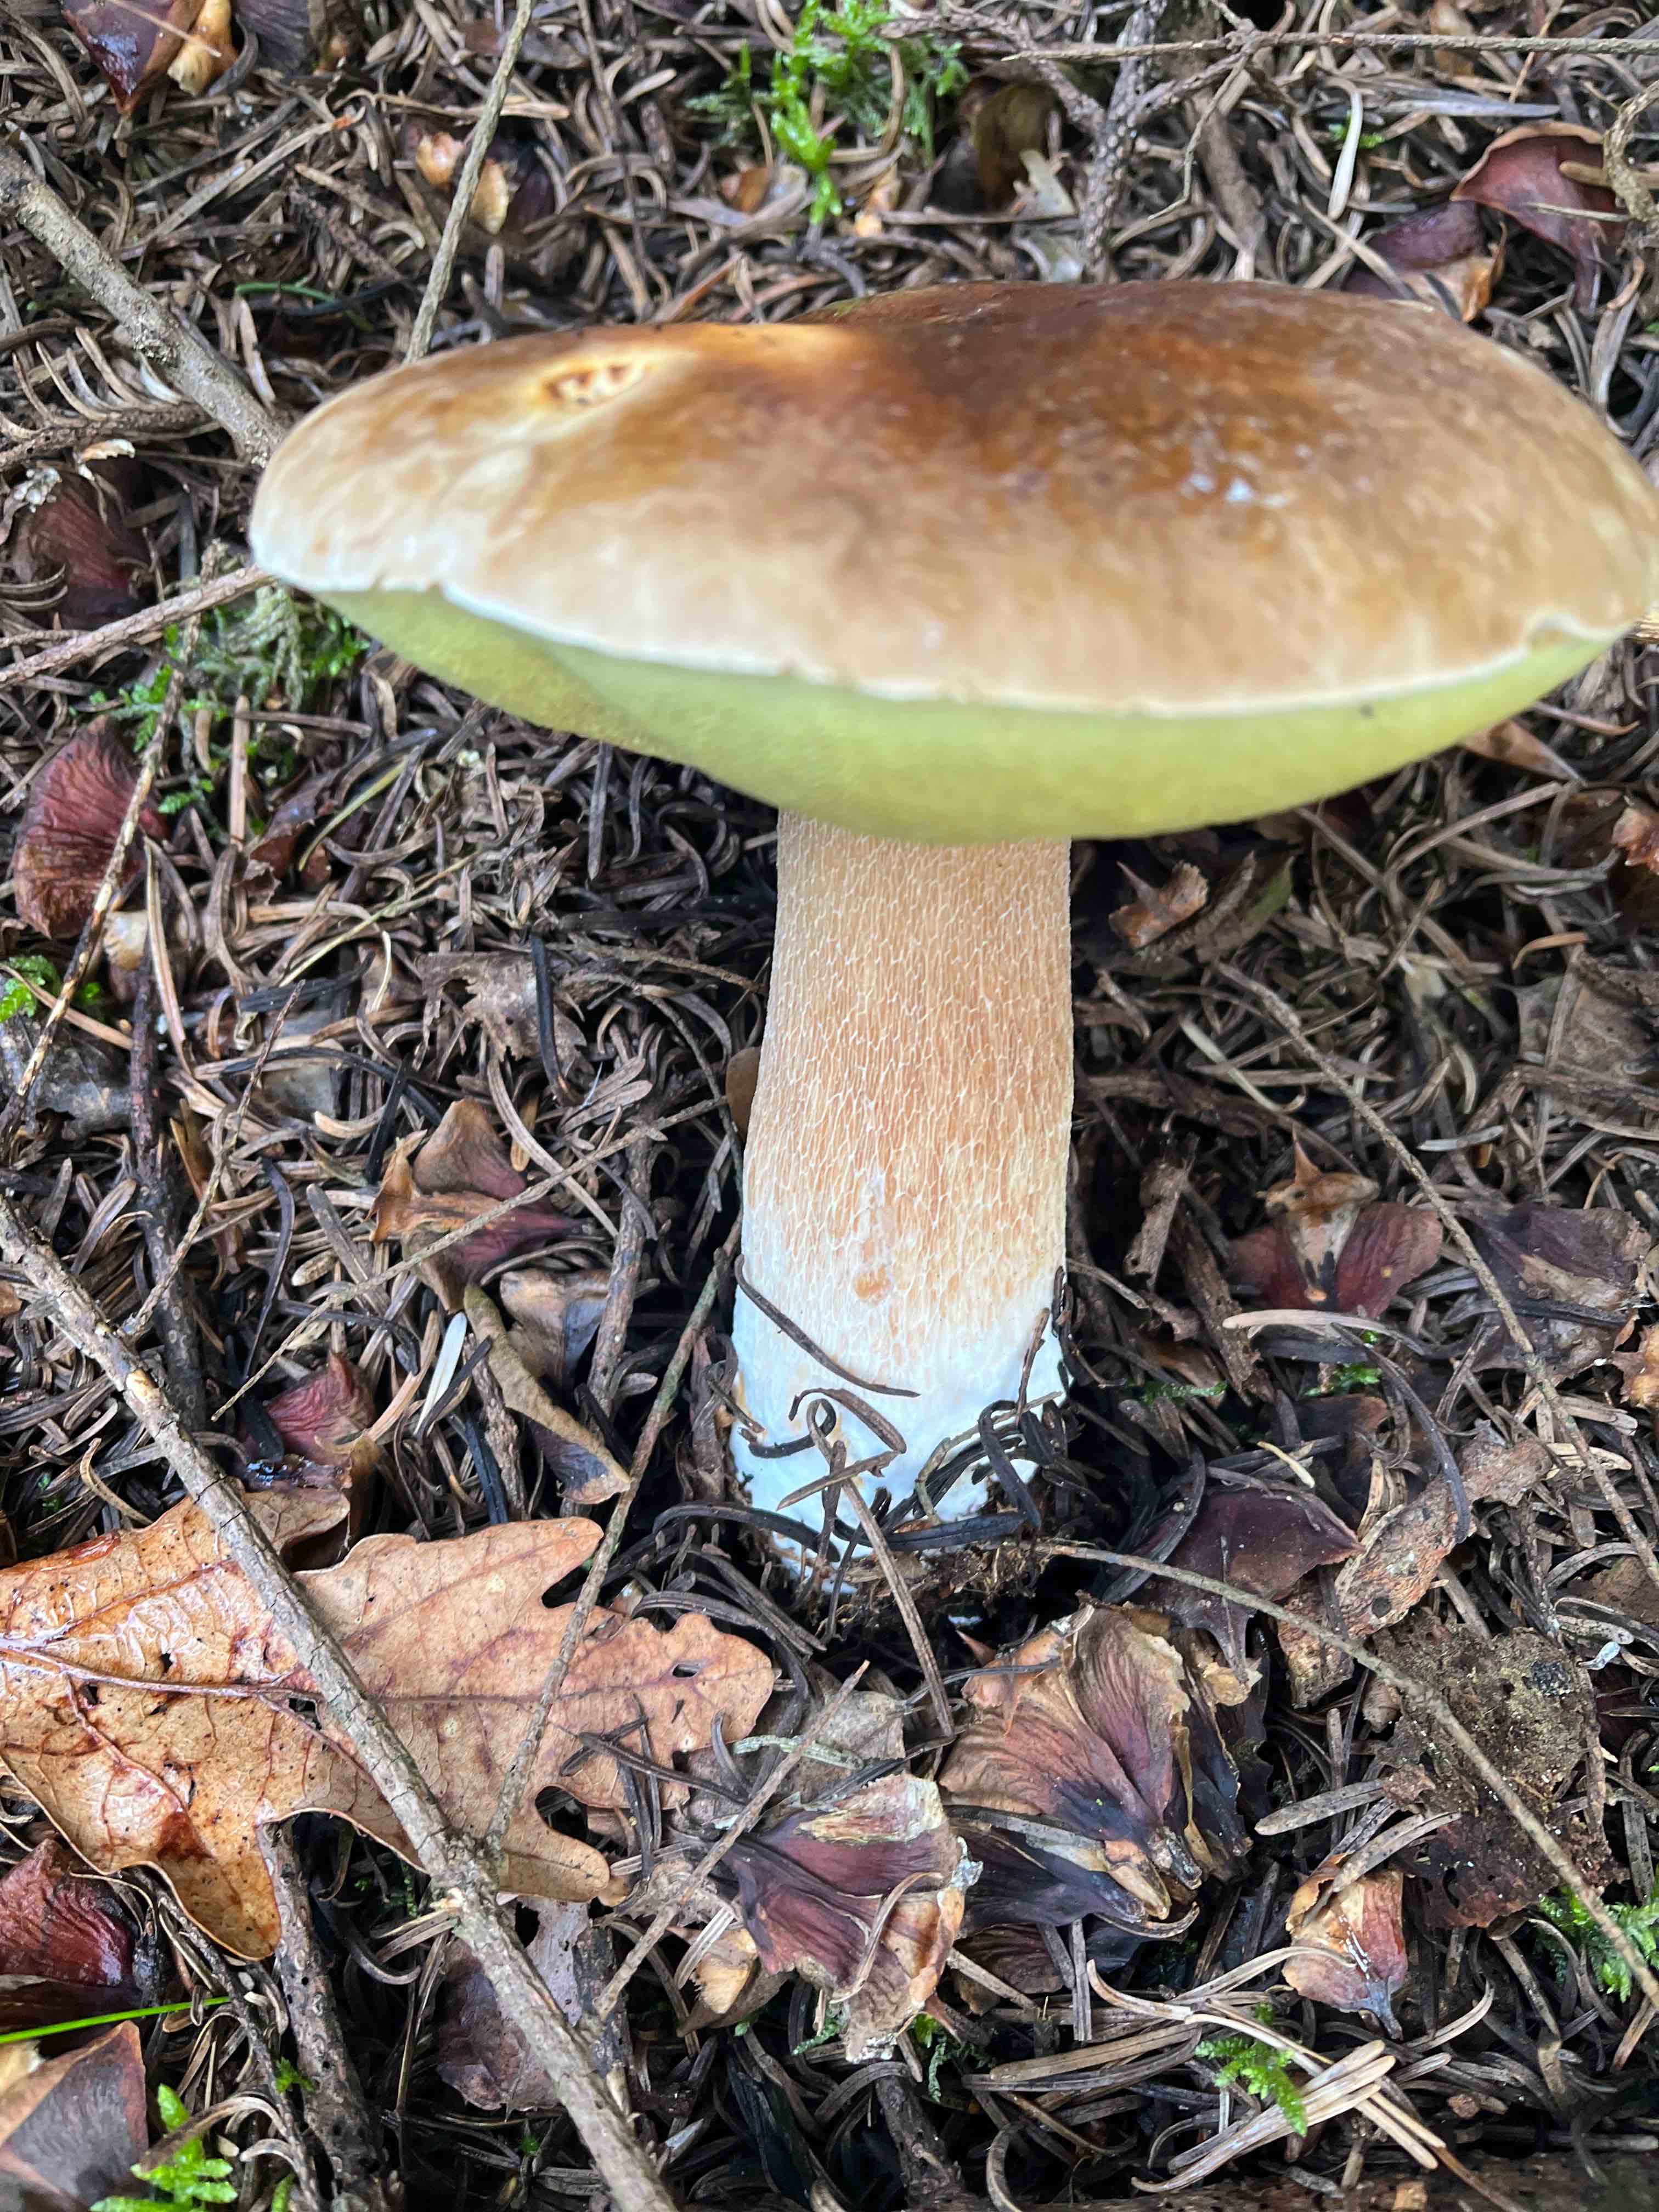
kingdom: Fungi
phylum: Basidiomycota
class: Agaricomycetes
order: Boletales
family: Boletaceae
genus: Boletus
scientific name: Boletus edulis
